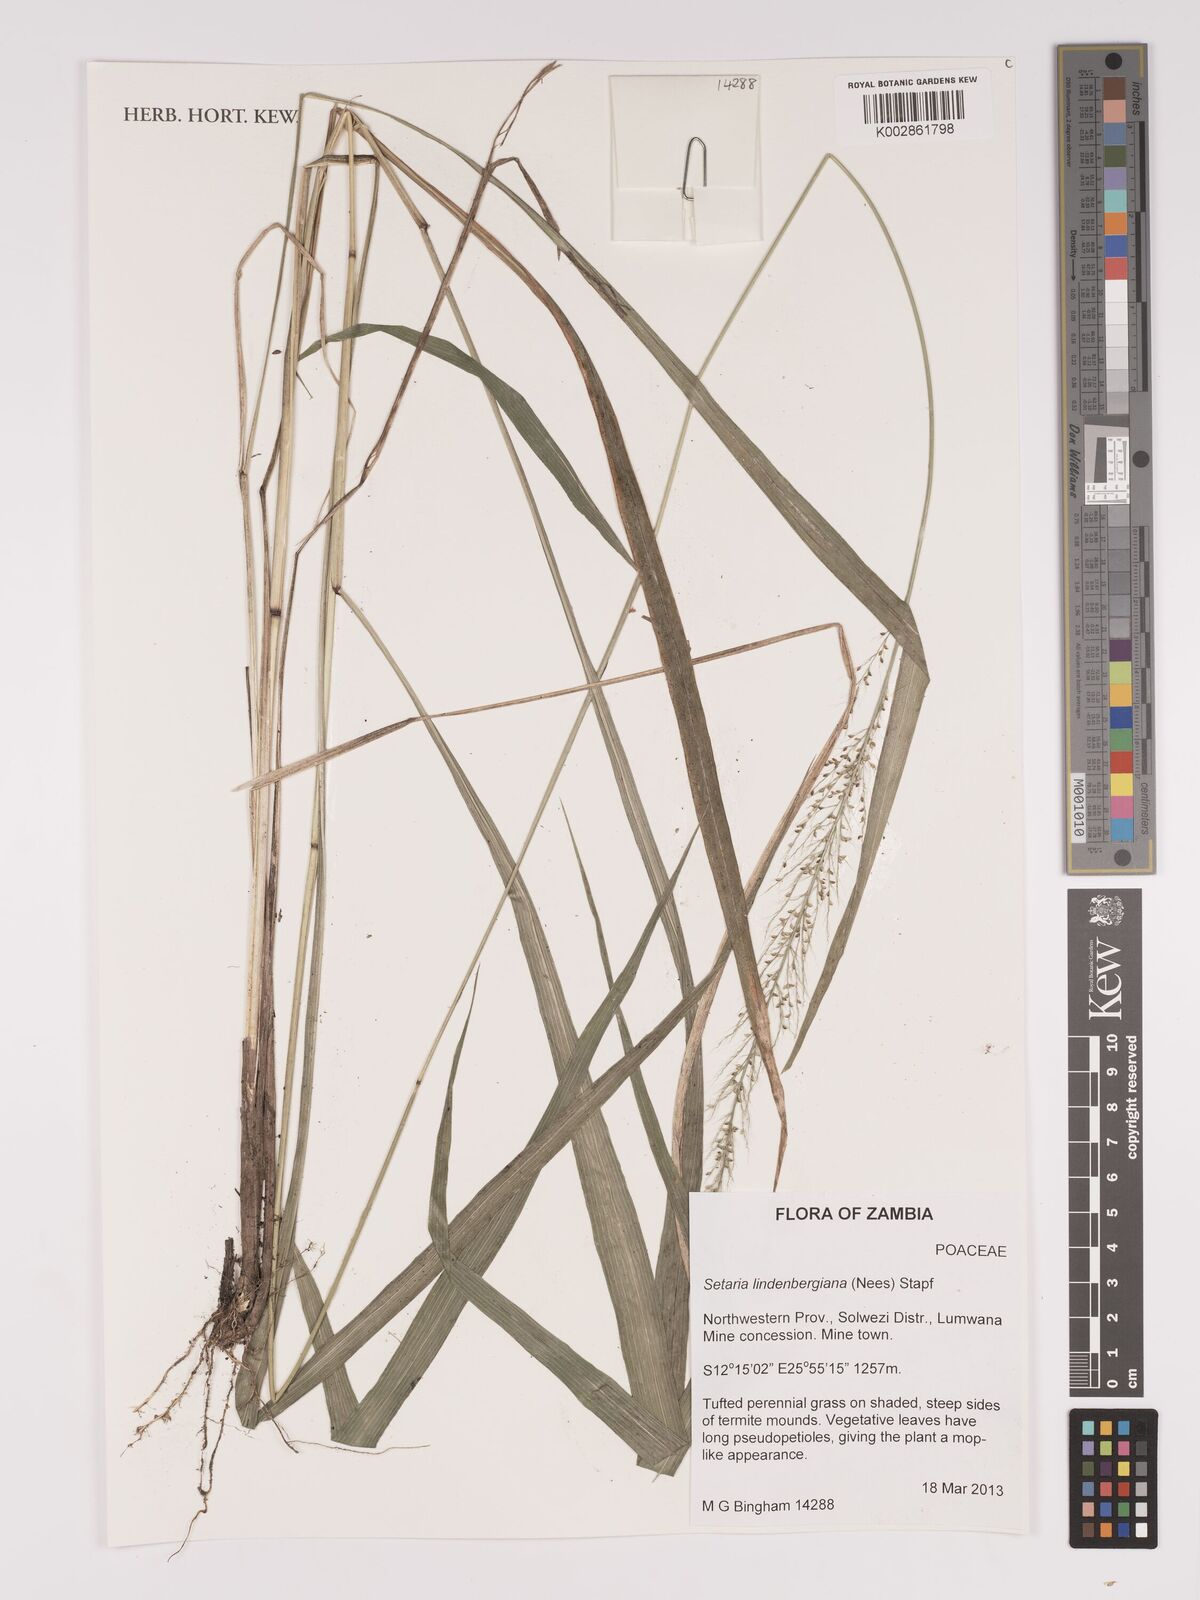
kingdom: Plantae
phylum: Tracheophyta
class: Liliopsida
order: Poales
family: Poaceae
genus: Setaria
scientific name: Setaria lindenbergiana
